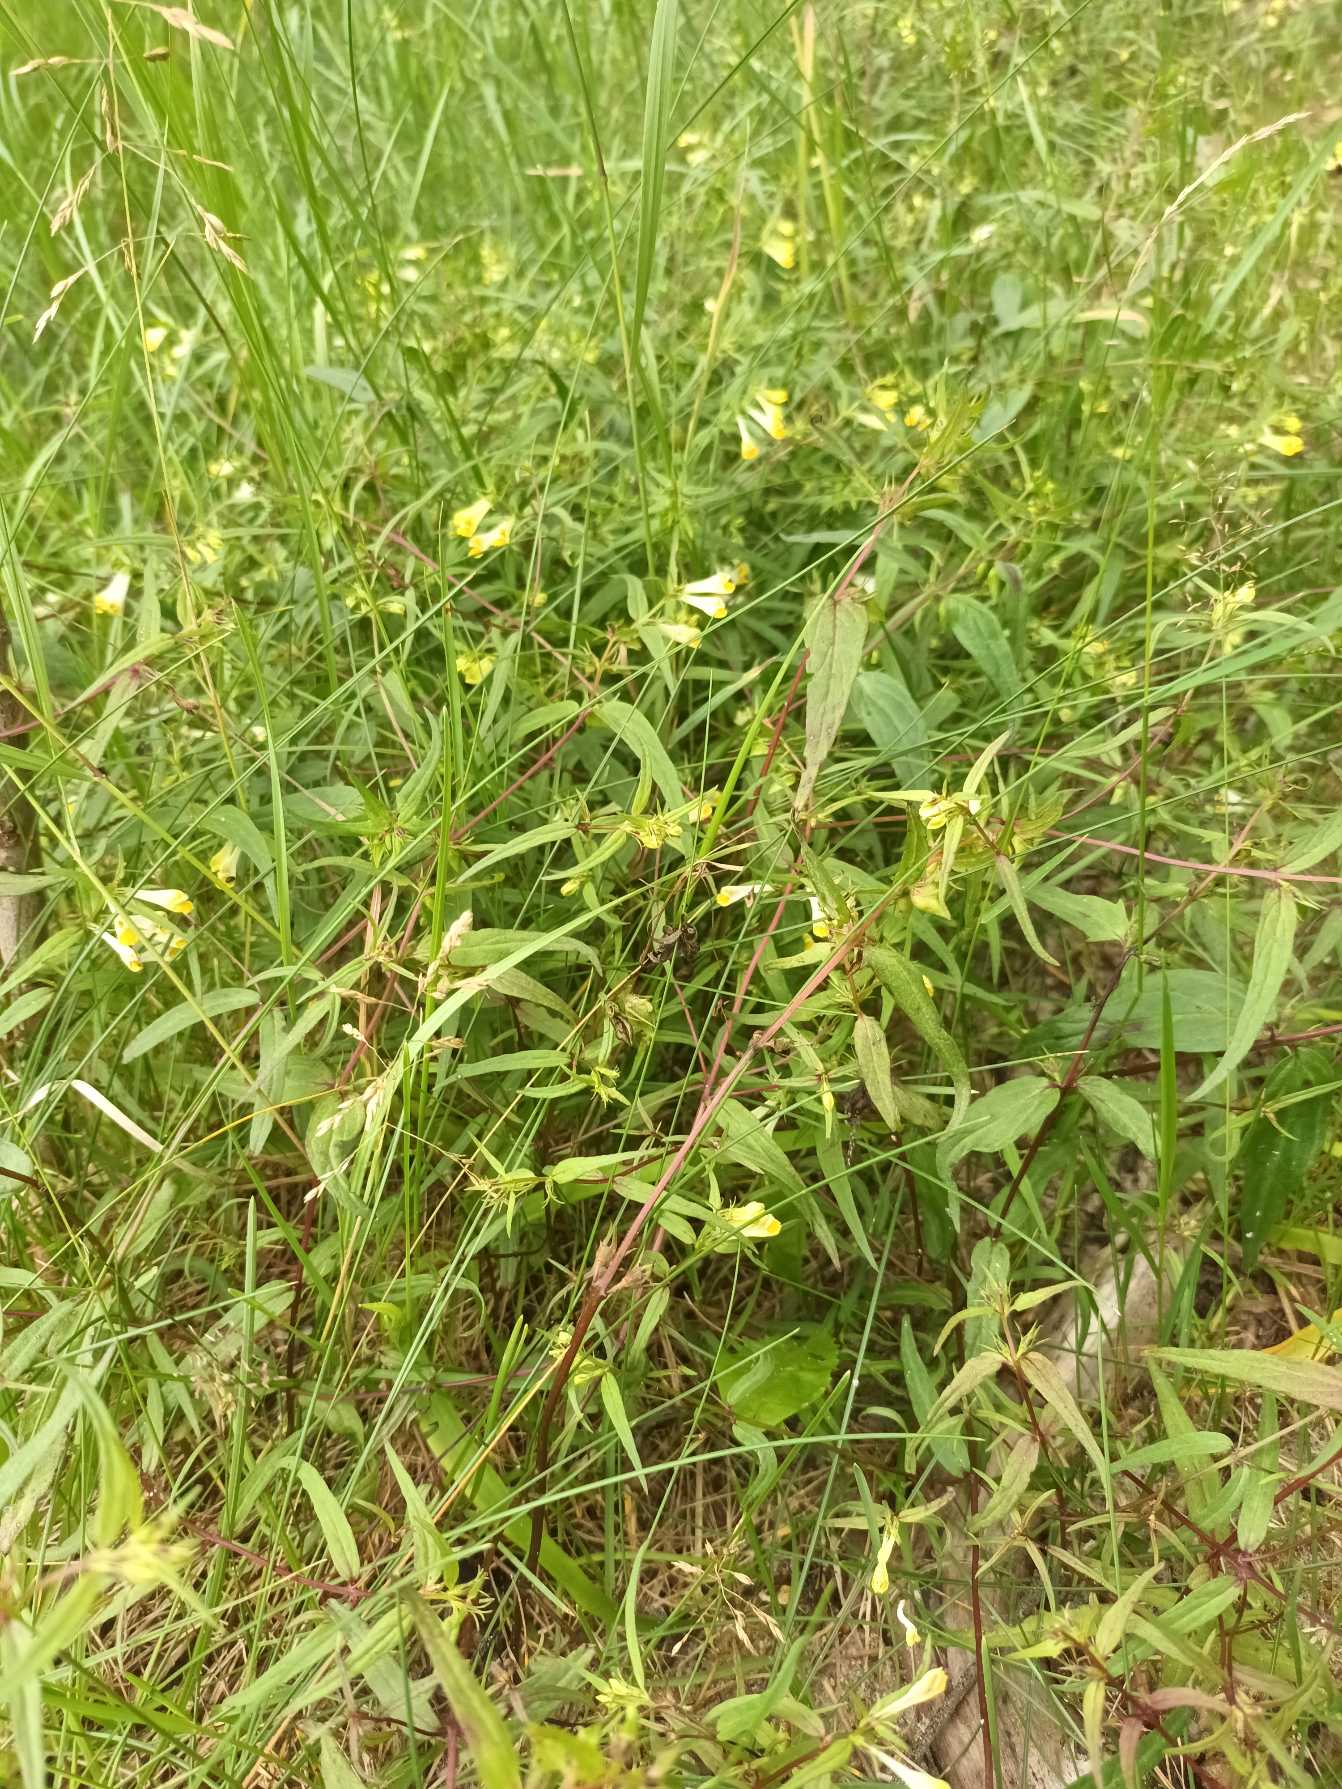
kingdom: Plantae
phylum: Tracheophyta
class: Magnoliopsida
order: Lamiales
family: Orobanchaceae
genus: Melampyrum
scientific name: Melampyrum pratense
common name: Almindelig kohvede
